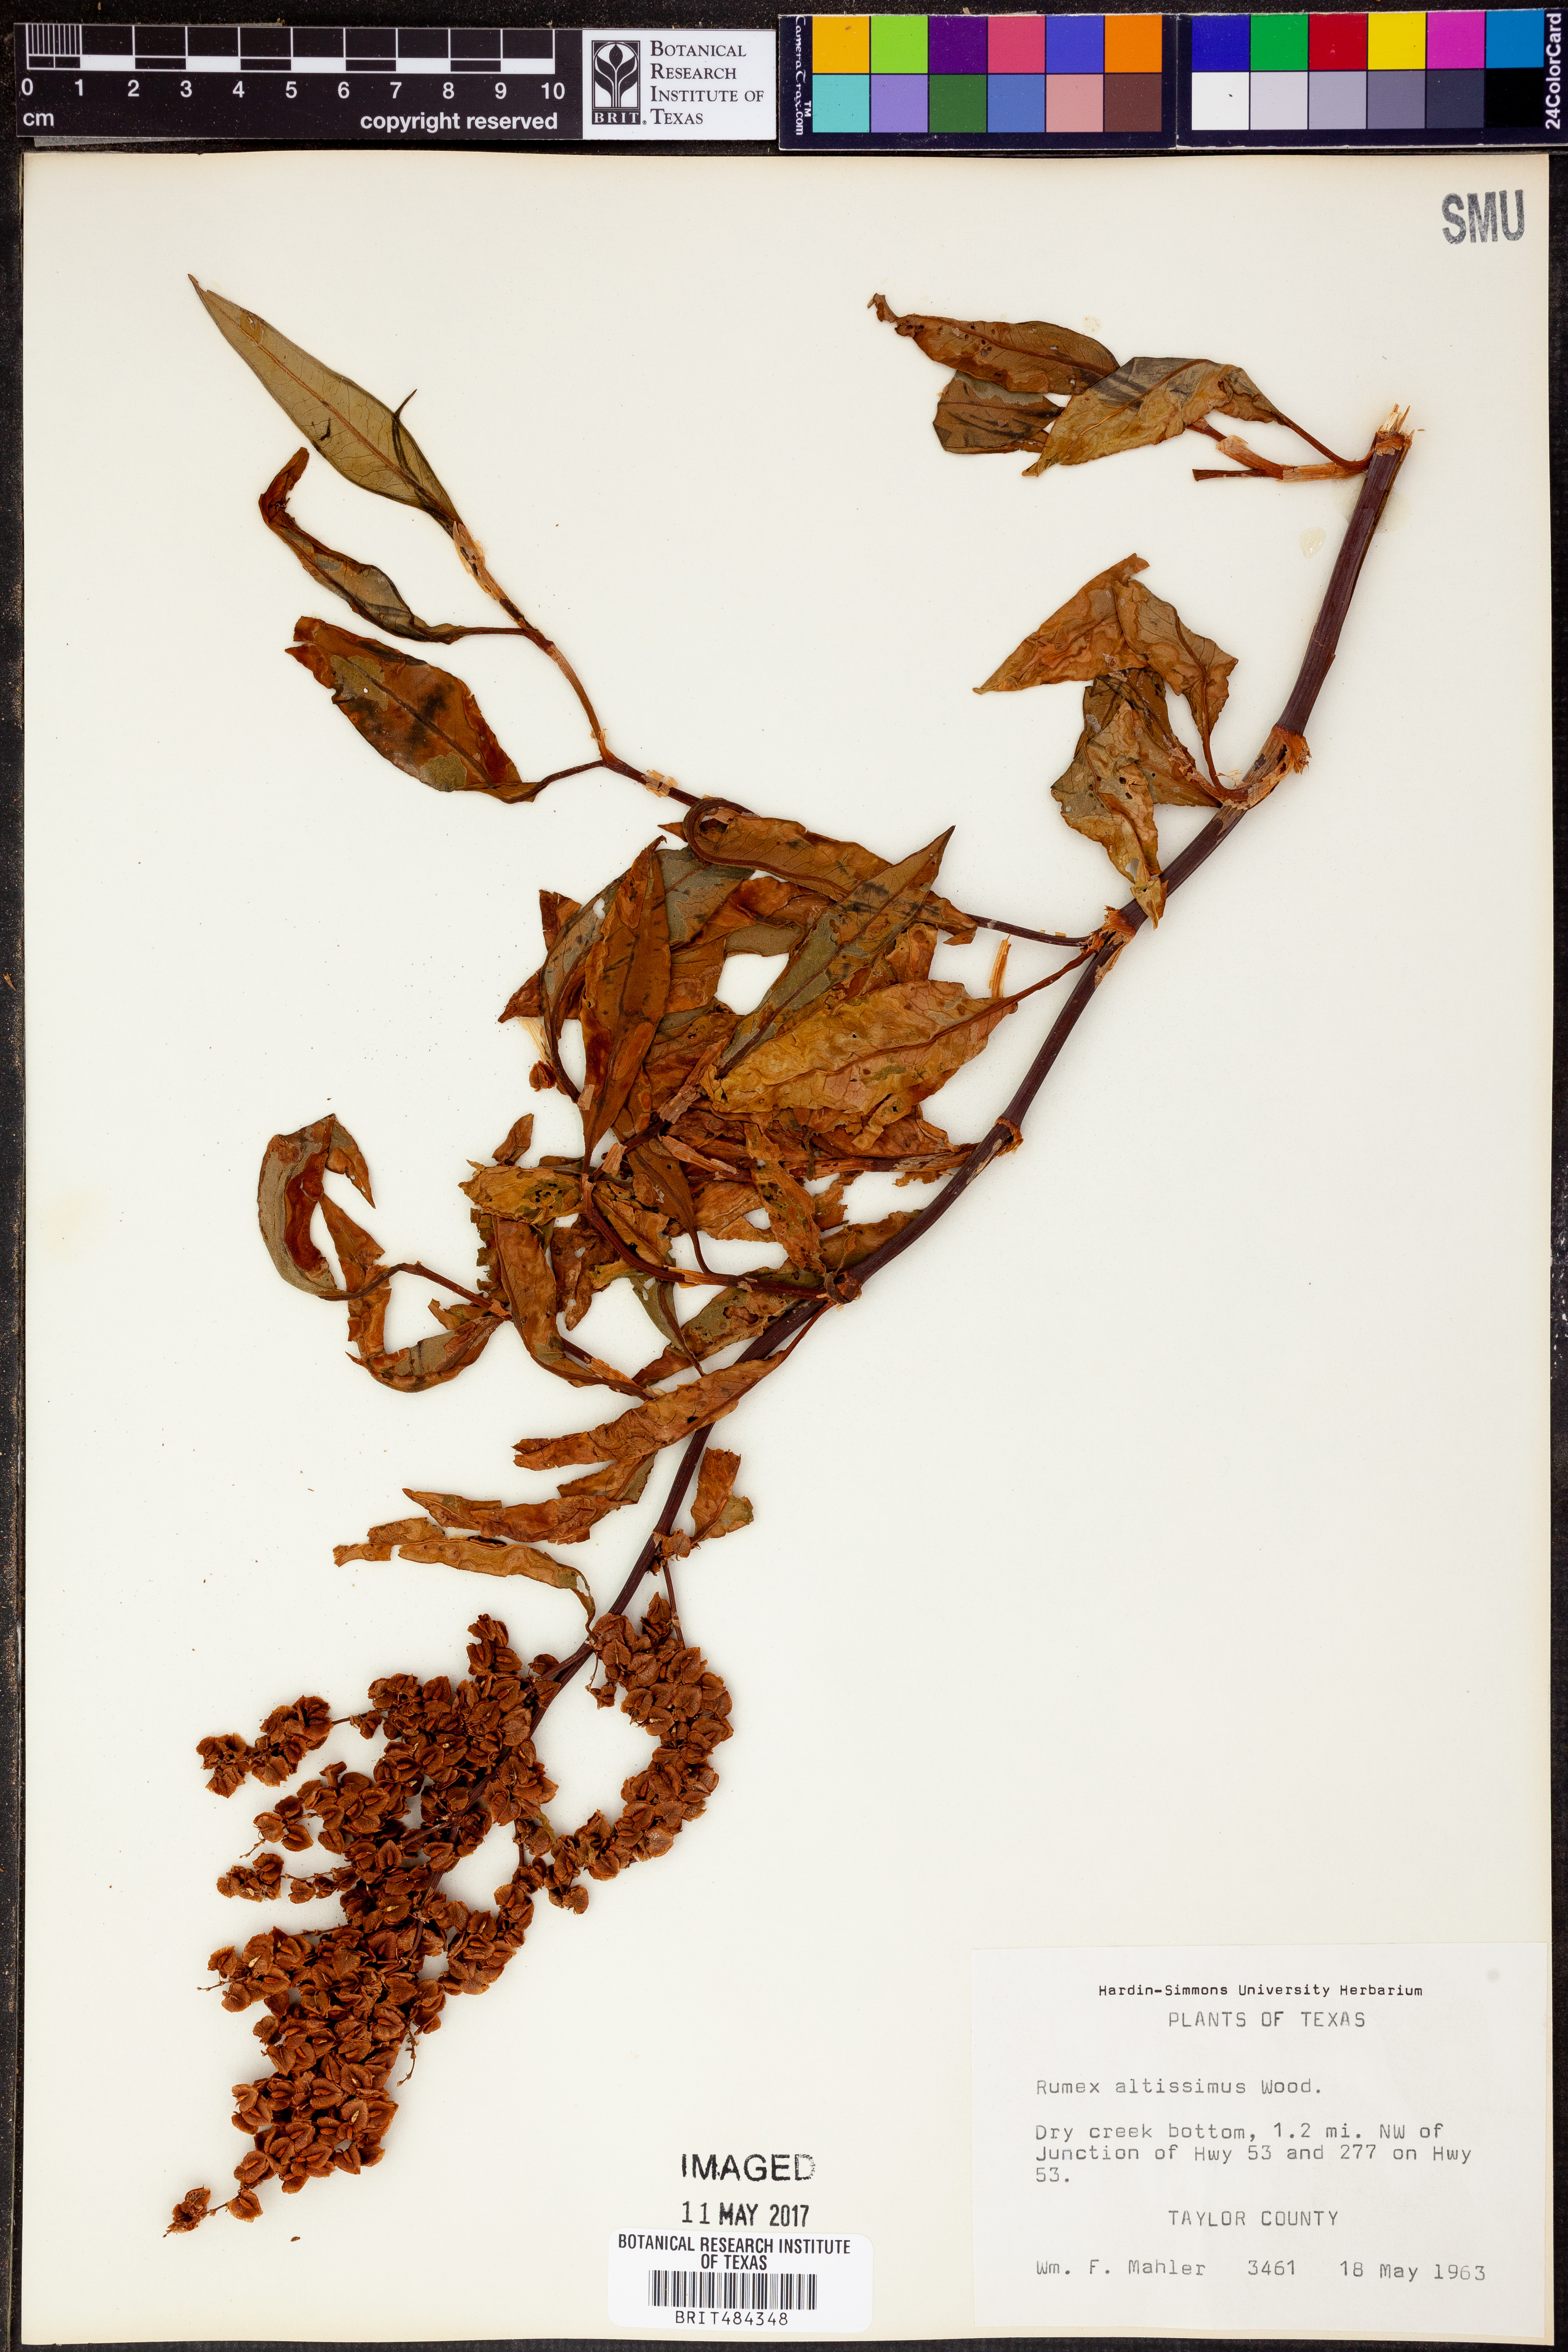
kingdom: Plantae
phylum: Tracheophyta
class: Magnoliopsida
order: Caryophyllales
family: Polygonaceae
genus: Rumex
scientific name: Rumex altissimus
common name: Smooth dock
